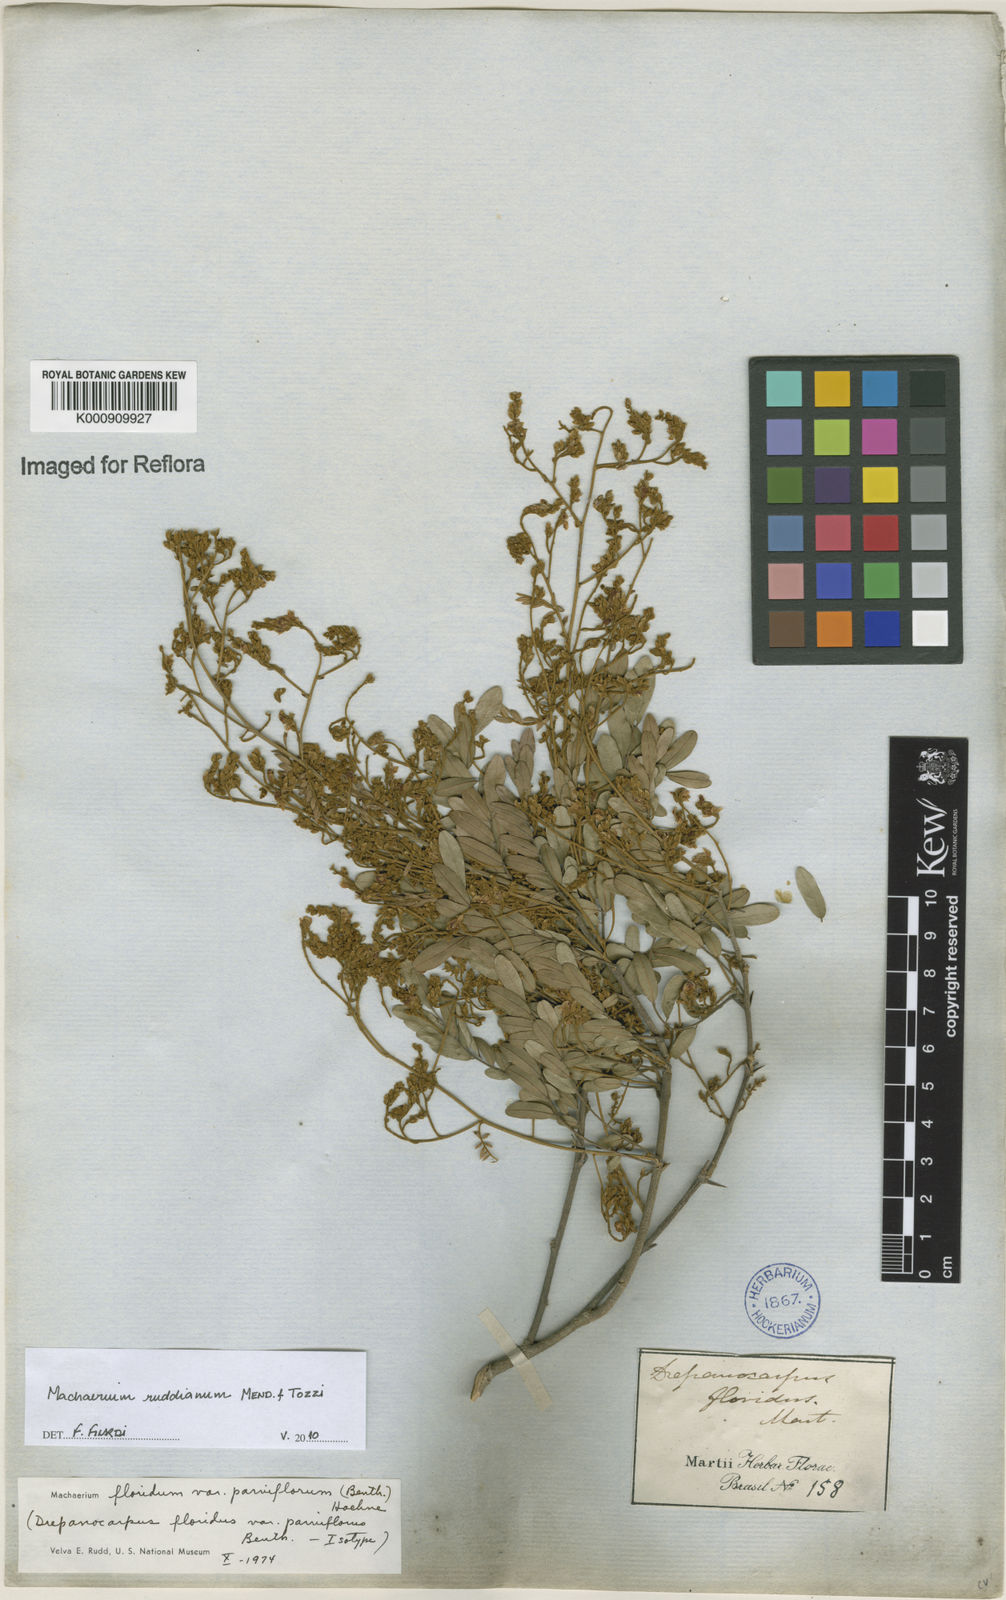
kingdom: Plantae
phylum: Tracheophyta
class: Magnoliopsida
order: Fabales
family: Fabaceae
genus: Machaerium
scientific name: Machaerium
